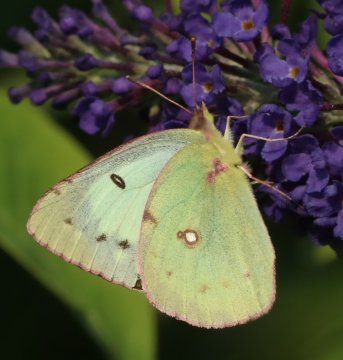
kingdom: Animalia
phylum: Arthropoda
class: Insecta
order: Lepidoptera
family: Pieridae
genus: Colias
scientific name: Colias philodice
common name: Clouded Sulphur
